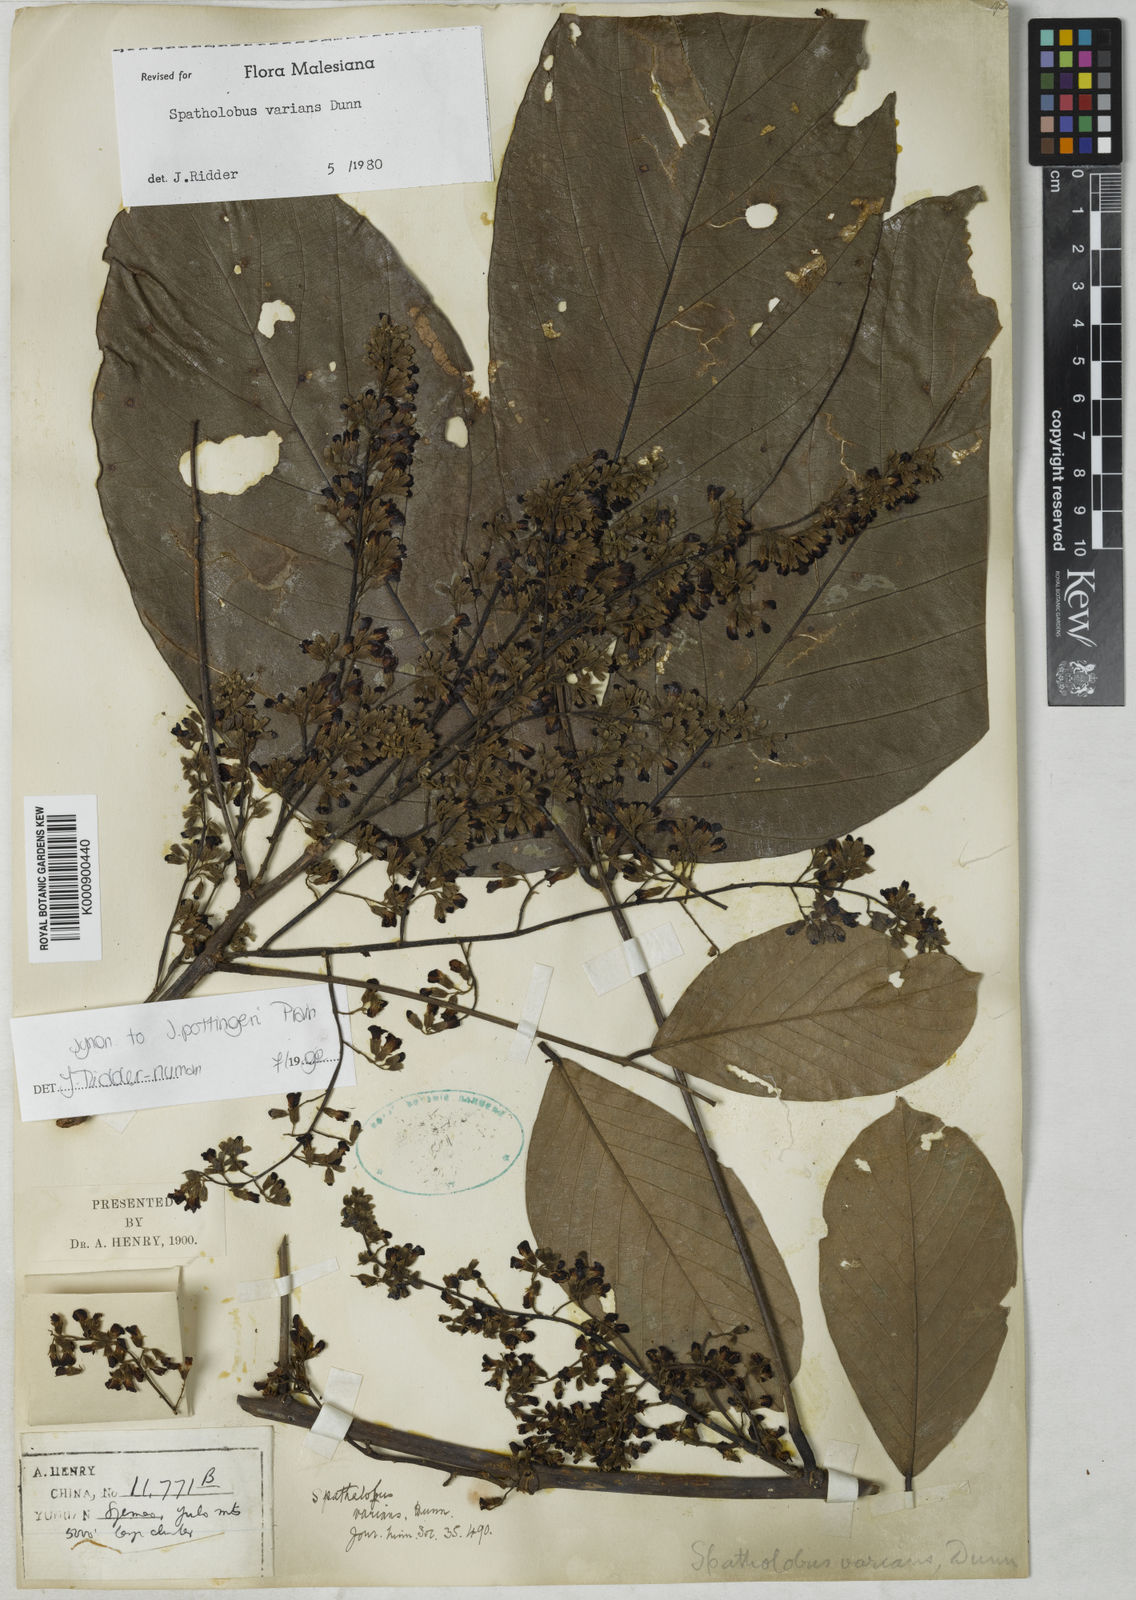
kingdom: Plantae
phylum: Tracheophyta
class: Magnoliopsida
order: Fabales
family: Fabaceae
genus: Spatholobus
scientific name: Spatholobus varians
